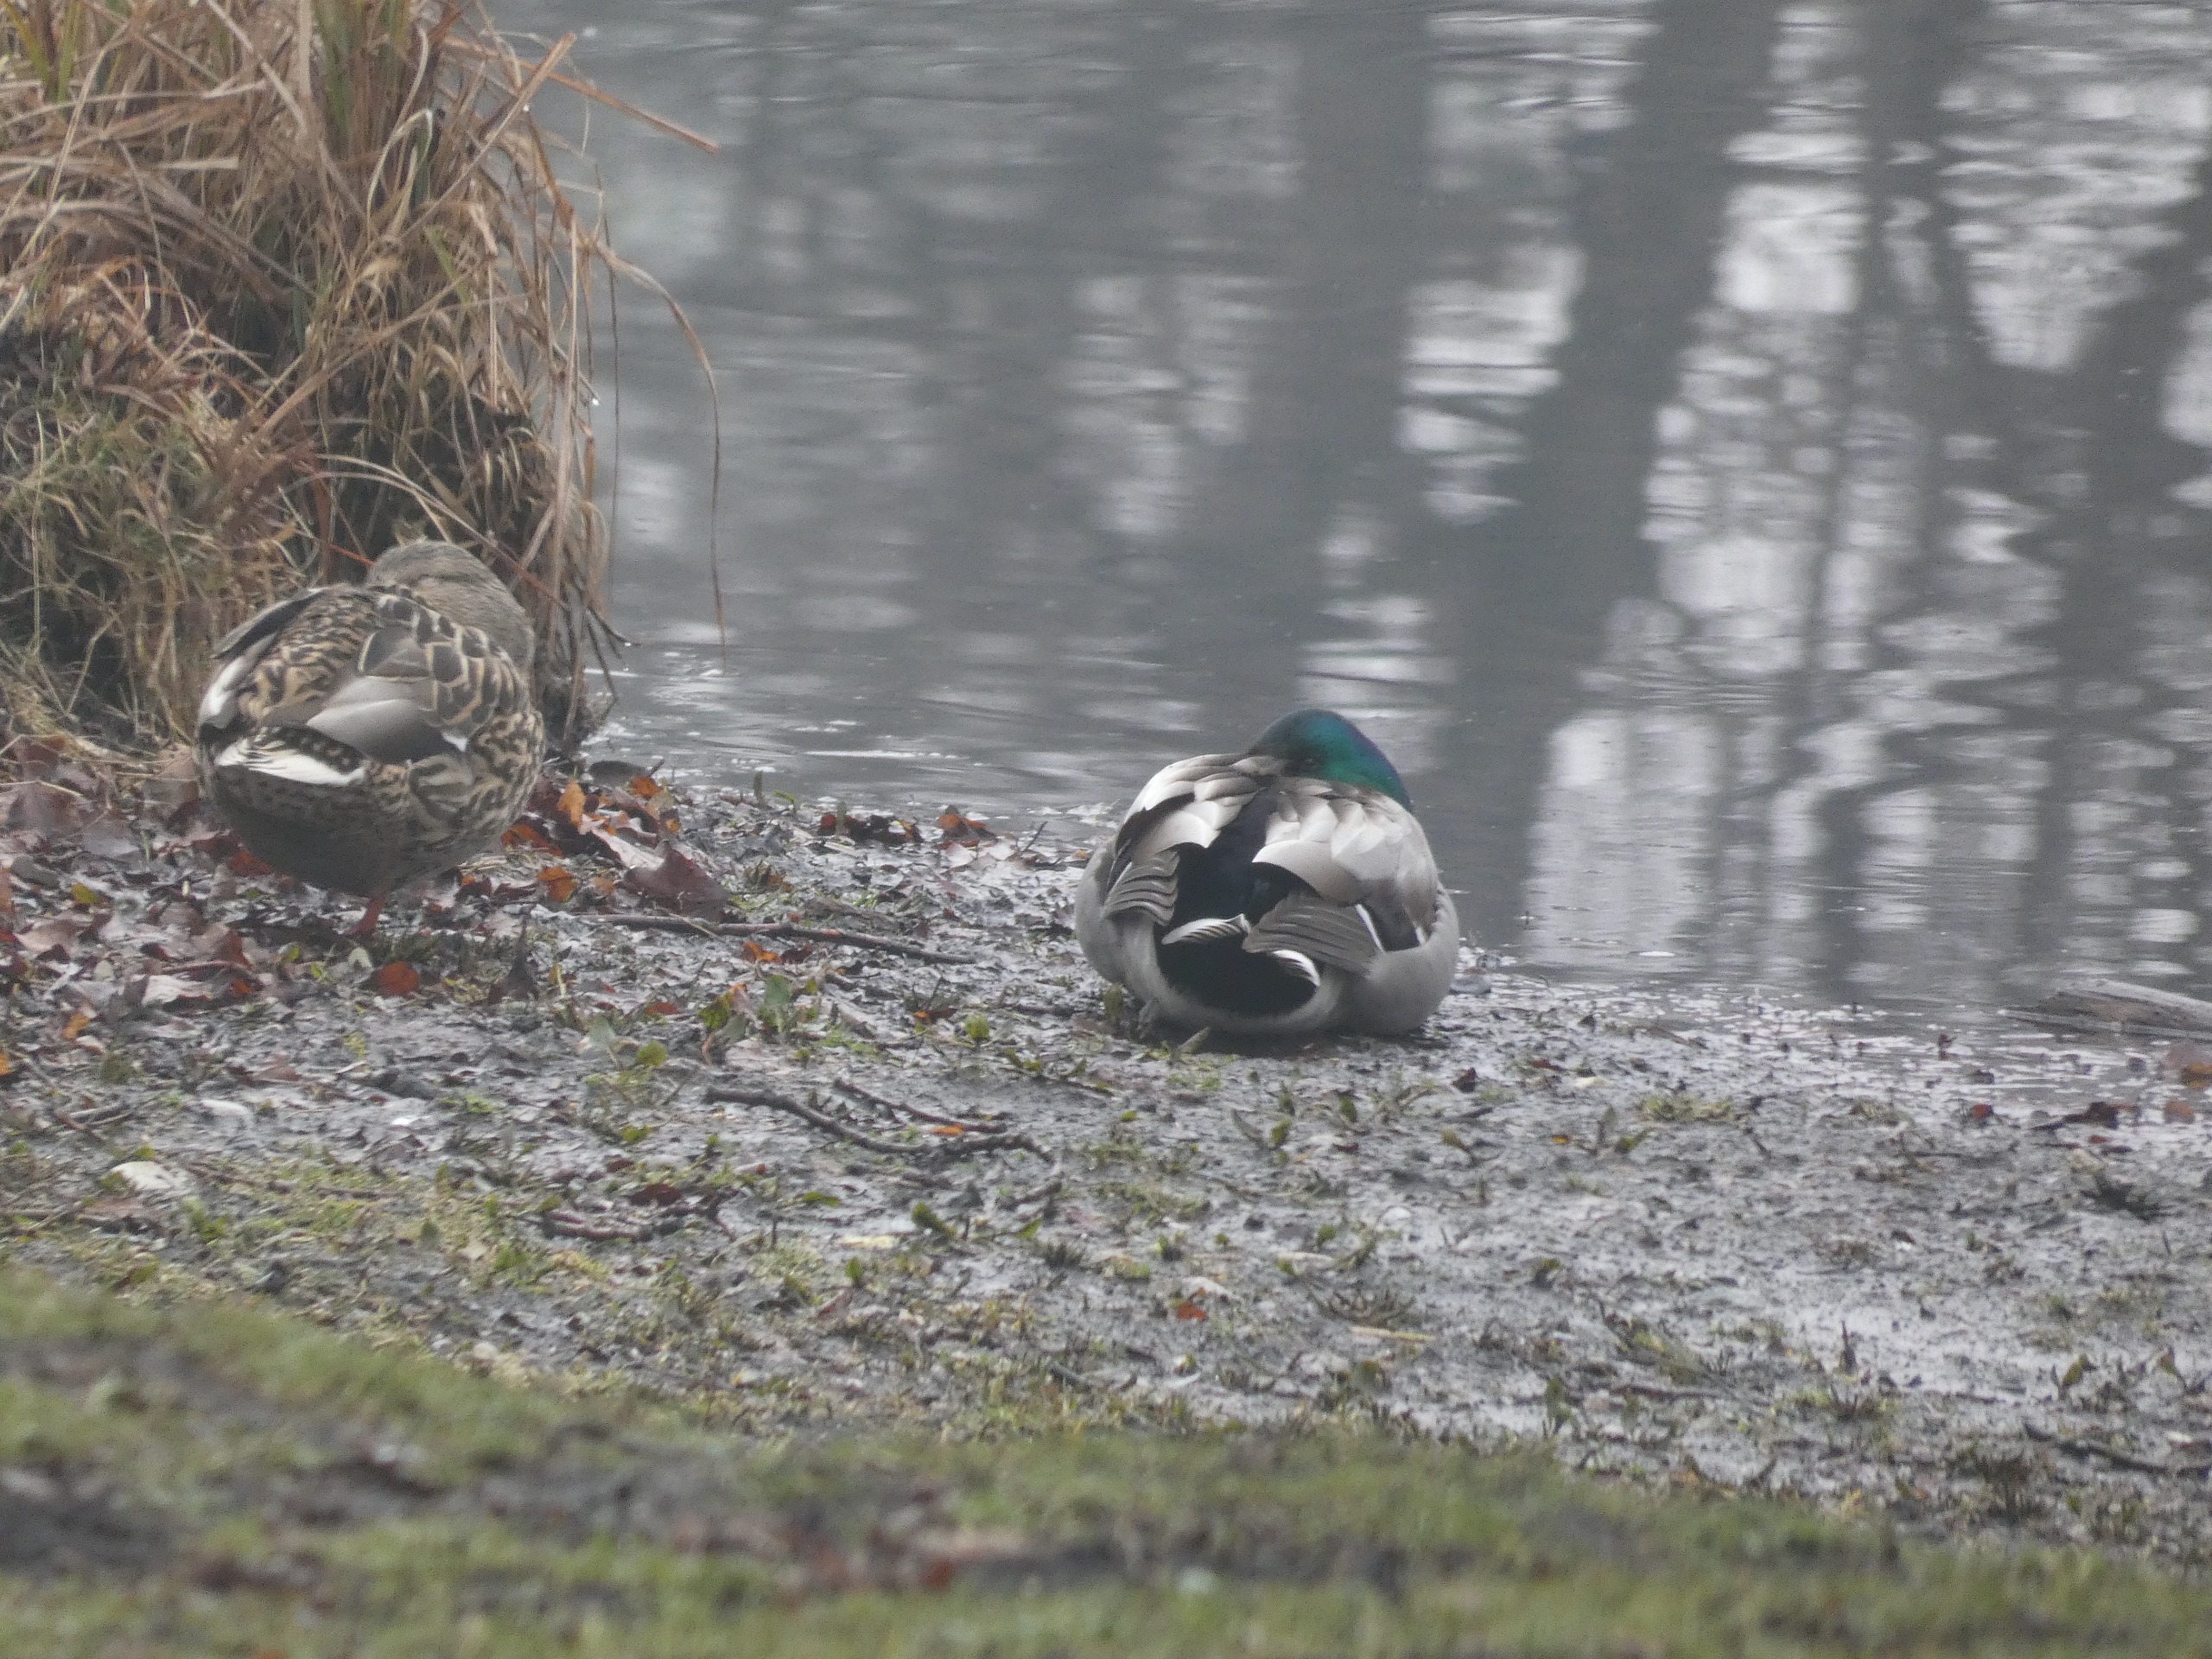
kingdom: Animalia
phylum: Chordata
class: Aves
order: Anseriformes
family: Anatidae
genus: Anas
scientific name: Anas platyrhynchos
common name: Gråand
